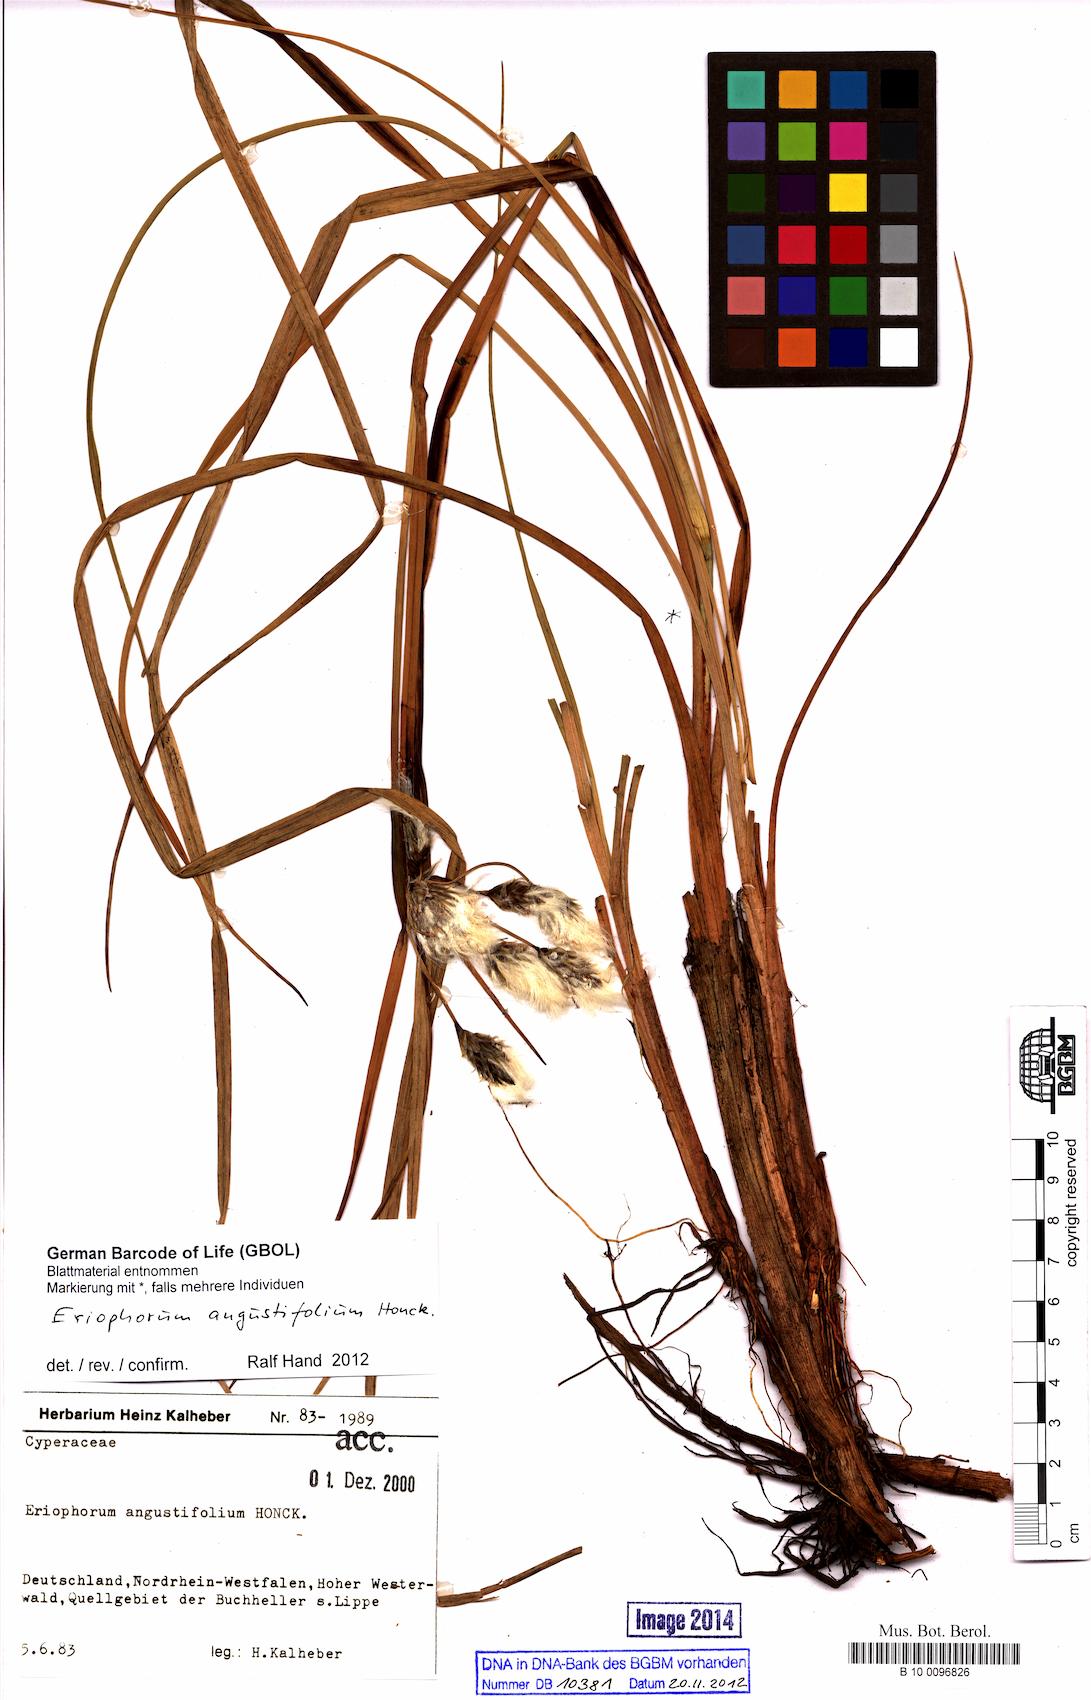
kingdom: Plantae
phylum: Tracheophyta
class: Liliopsida
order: Poales
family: Cyperaceae
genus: Eriophorum
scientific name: Eriophorum angustifolium
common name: Common cottongrass
